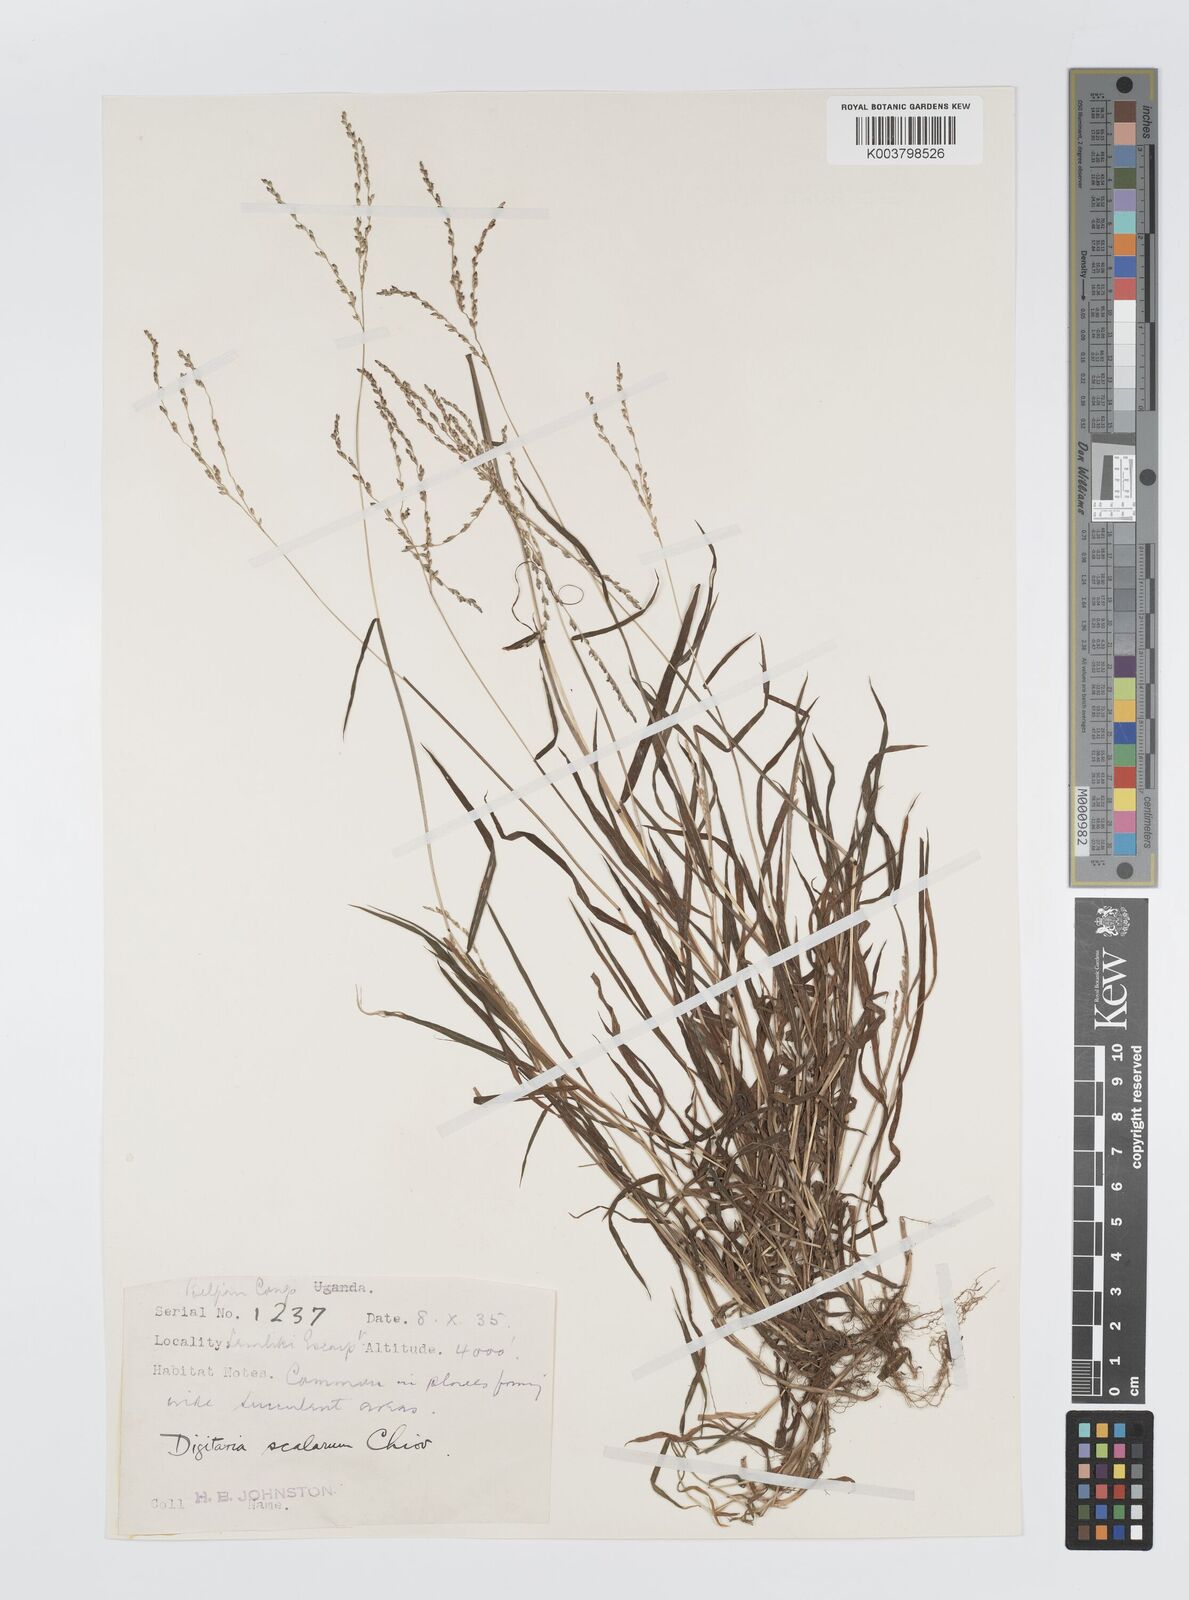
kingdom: Plantae
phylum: Tracheophyta
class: Liliopsida
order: Poales
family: Poaceae
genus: Digitaria
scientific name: Digitaria abyssinica
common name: African couchgrass
